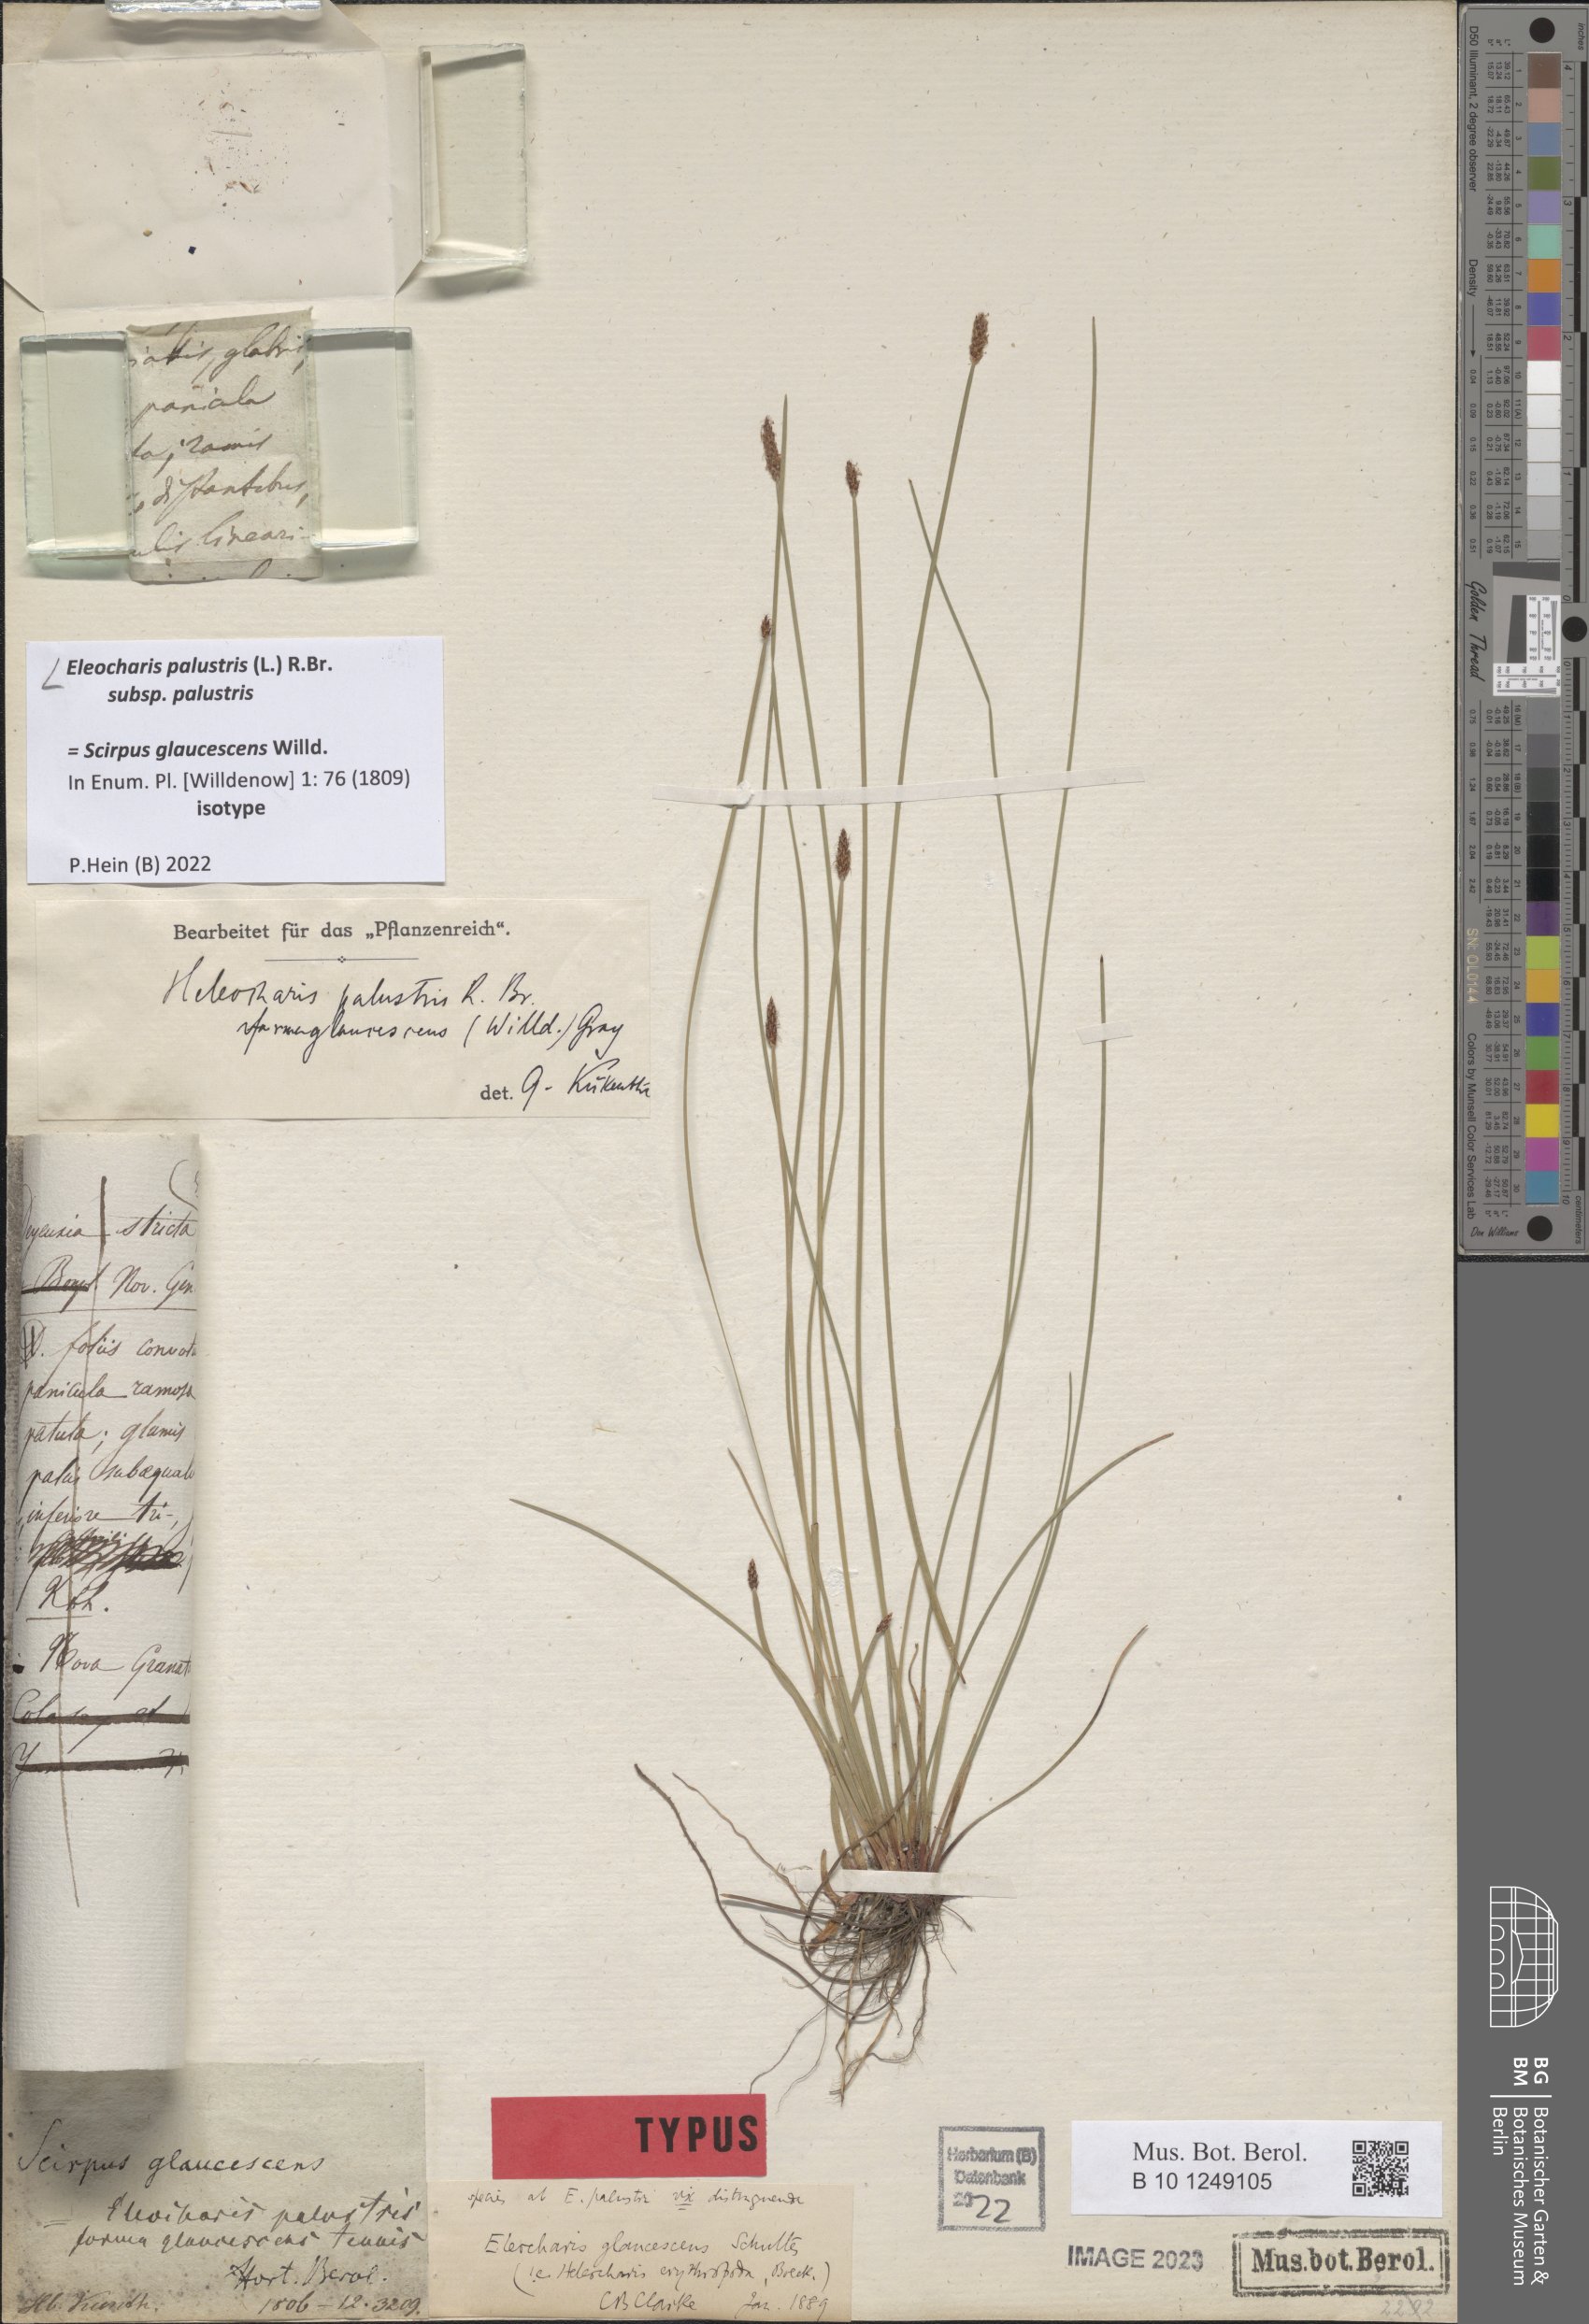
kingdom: Plantae
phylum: Tracheophyta
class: Liliopsida
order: Poales
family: Cyperaceae
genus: Eleocharis
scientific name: Eleocharis palustris
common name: Common spike-rush
